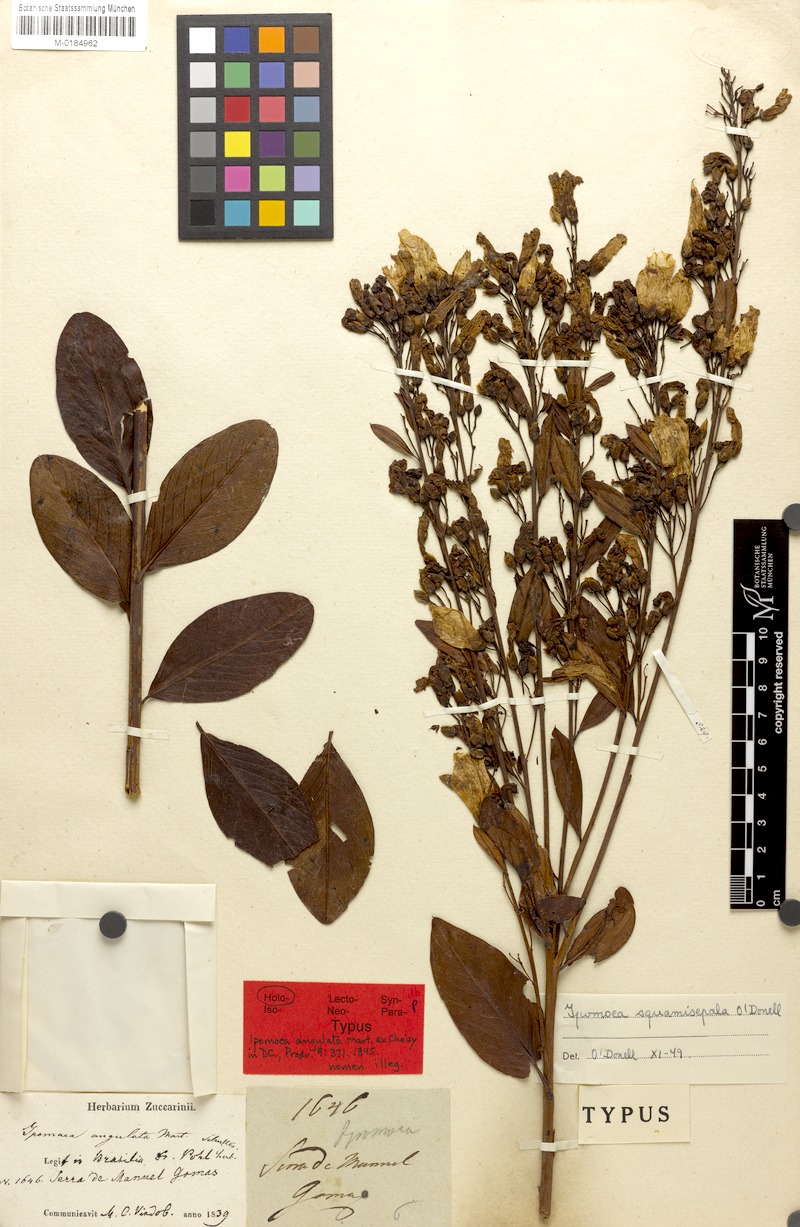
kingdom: Plantae
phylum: Tracheophyta
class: Magnoliopsida
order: Solanales
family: Convolvulaceae
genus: Ipomoea
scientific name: Ipomoea squamisepala
